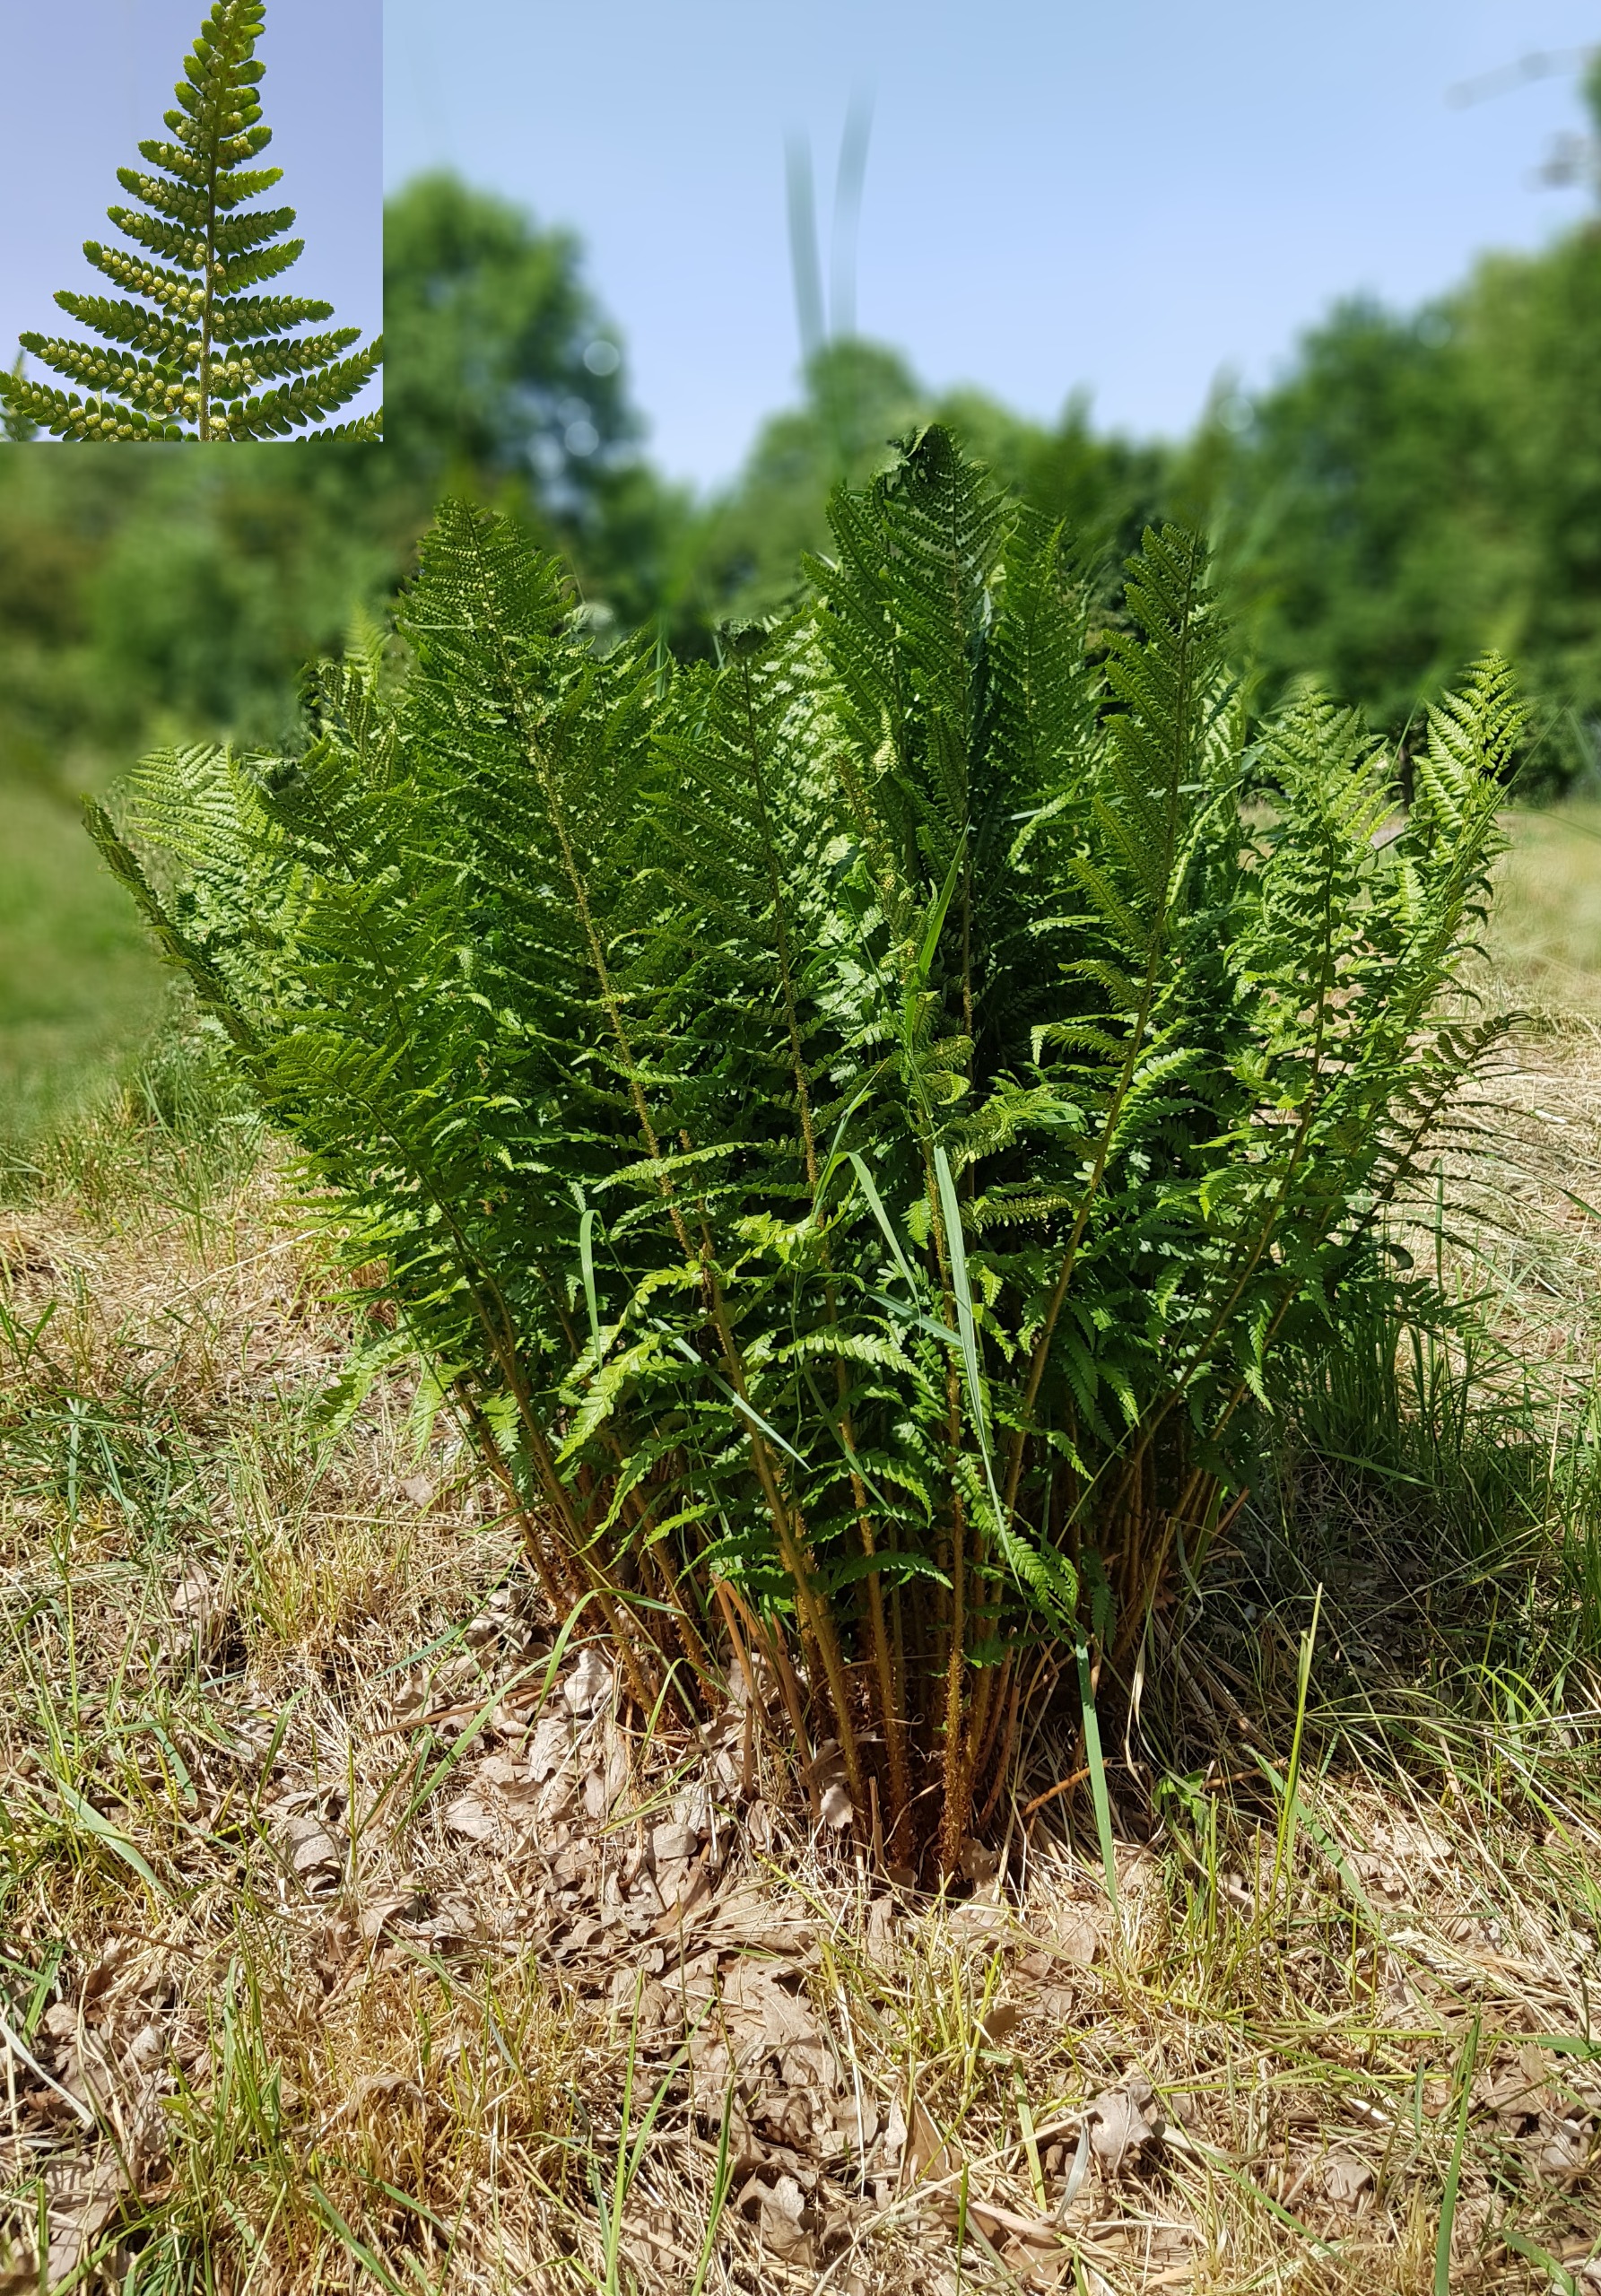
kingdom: Plantae
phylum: Tracheophyta
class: Polypodiopsida
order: Polypodiales
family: Dryopteridaceae
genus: Dryopteris
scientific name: Dryopteris filix-mas
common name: Almindelig mangeløv
